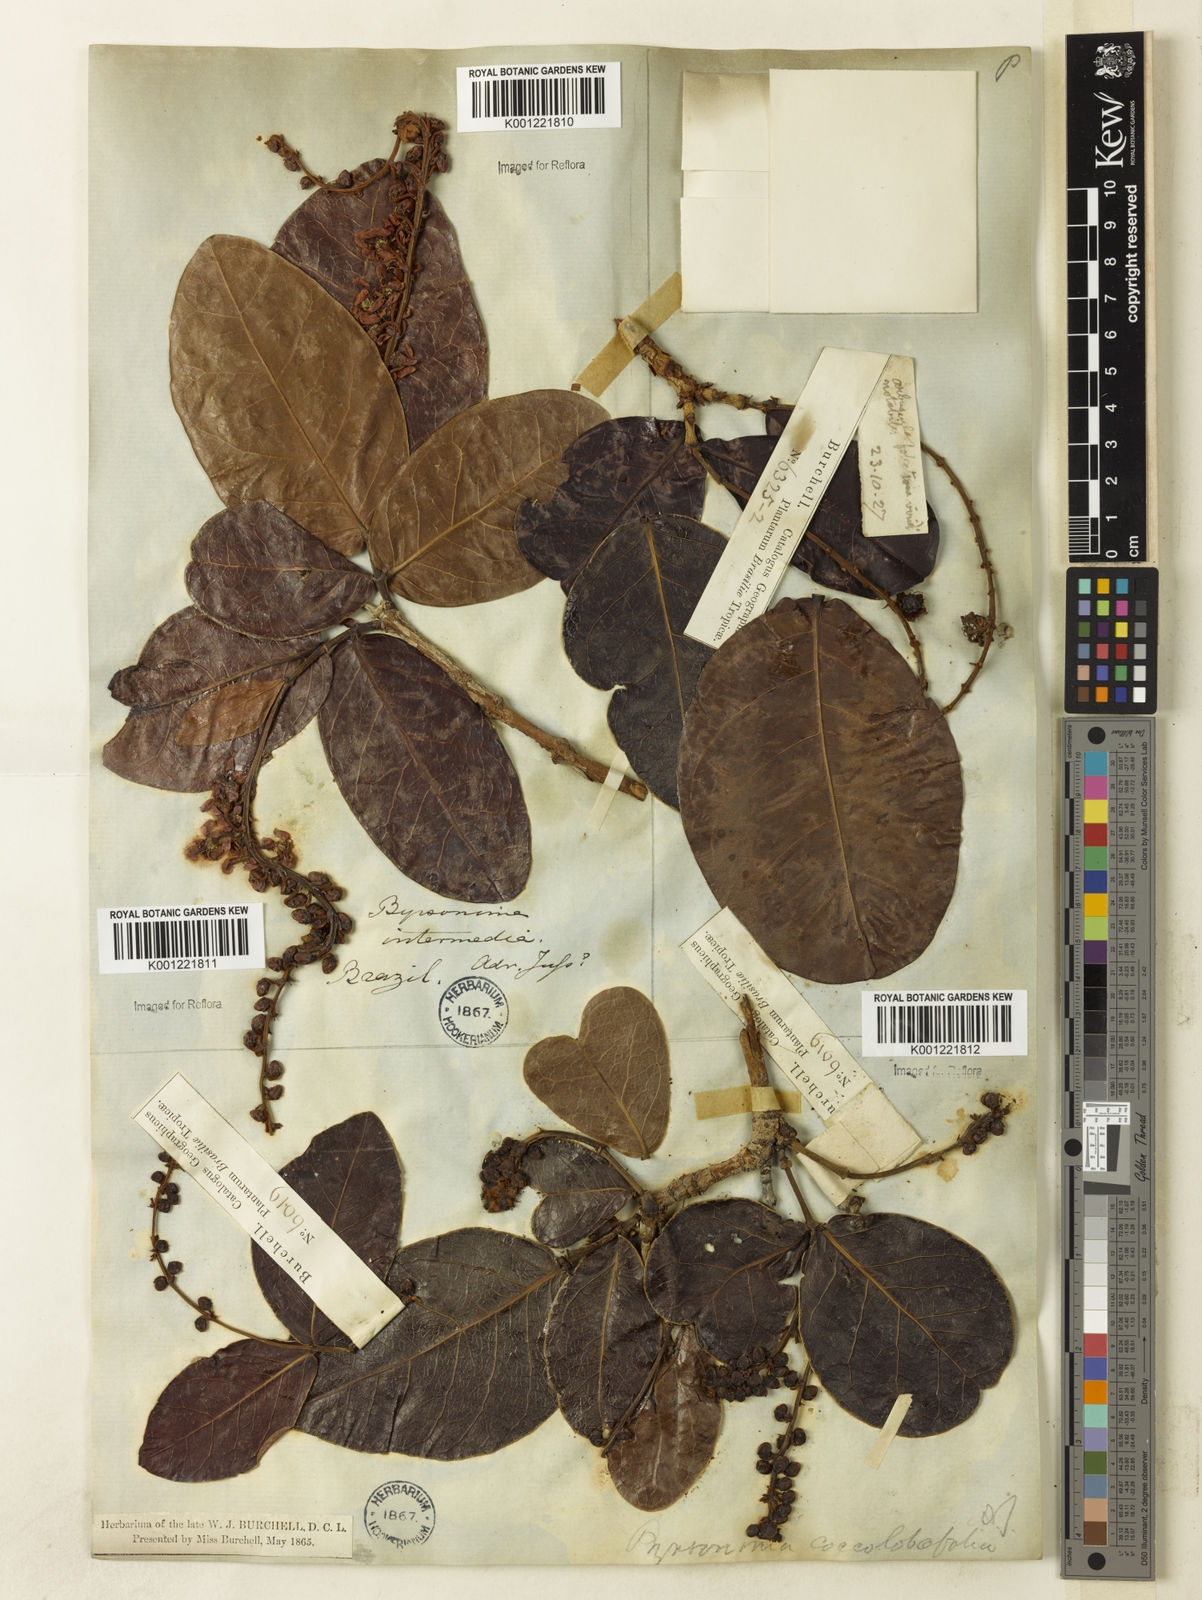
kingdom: Plantae
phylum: Tracheophyta
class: Magnoliopsida
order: Malpighiales
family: Malpighiaceae
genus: Byrsonima
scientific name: Byrsonima coccolobifolia
